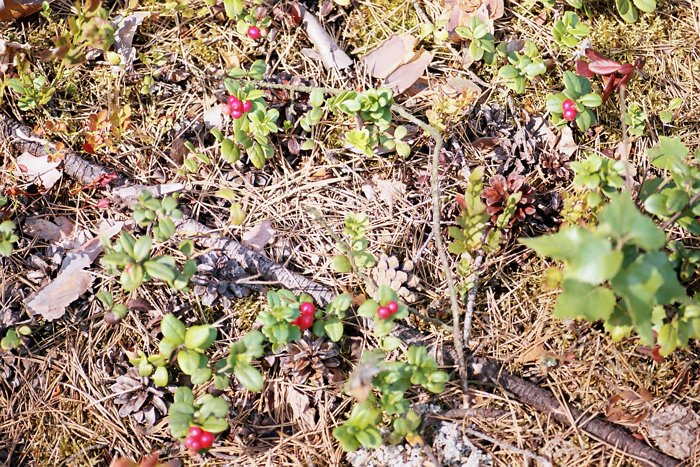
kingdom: Plantae
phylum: Tracheophyta
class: Magnoliopsida
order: Ericales
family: Ericaceae
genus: Vaccinium
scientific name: Vaccinium vitis-idaea
